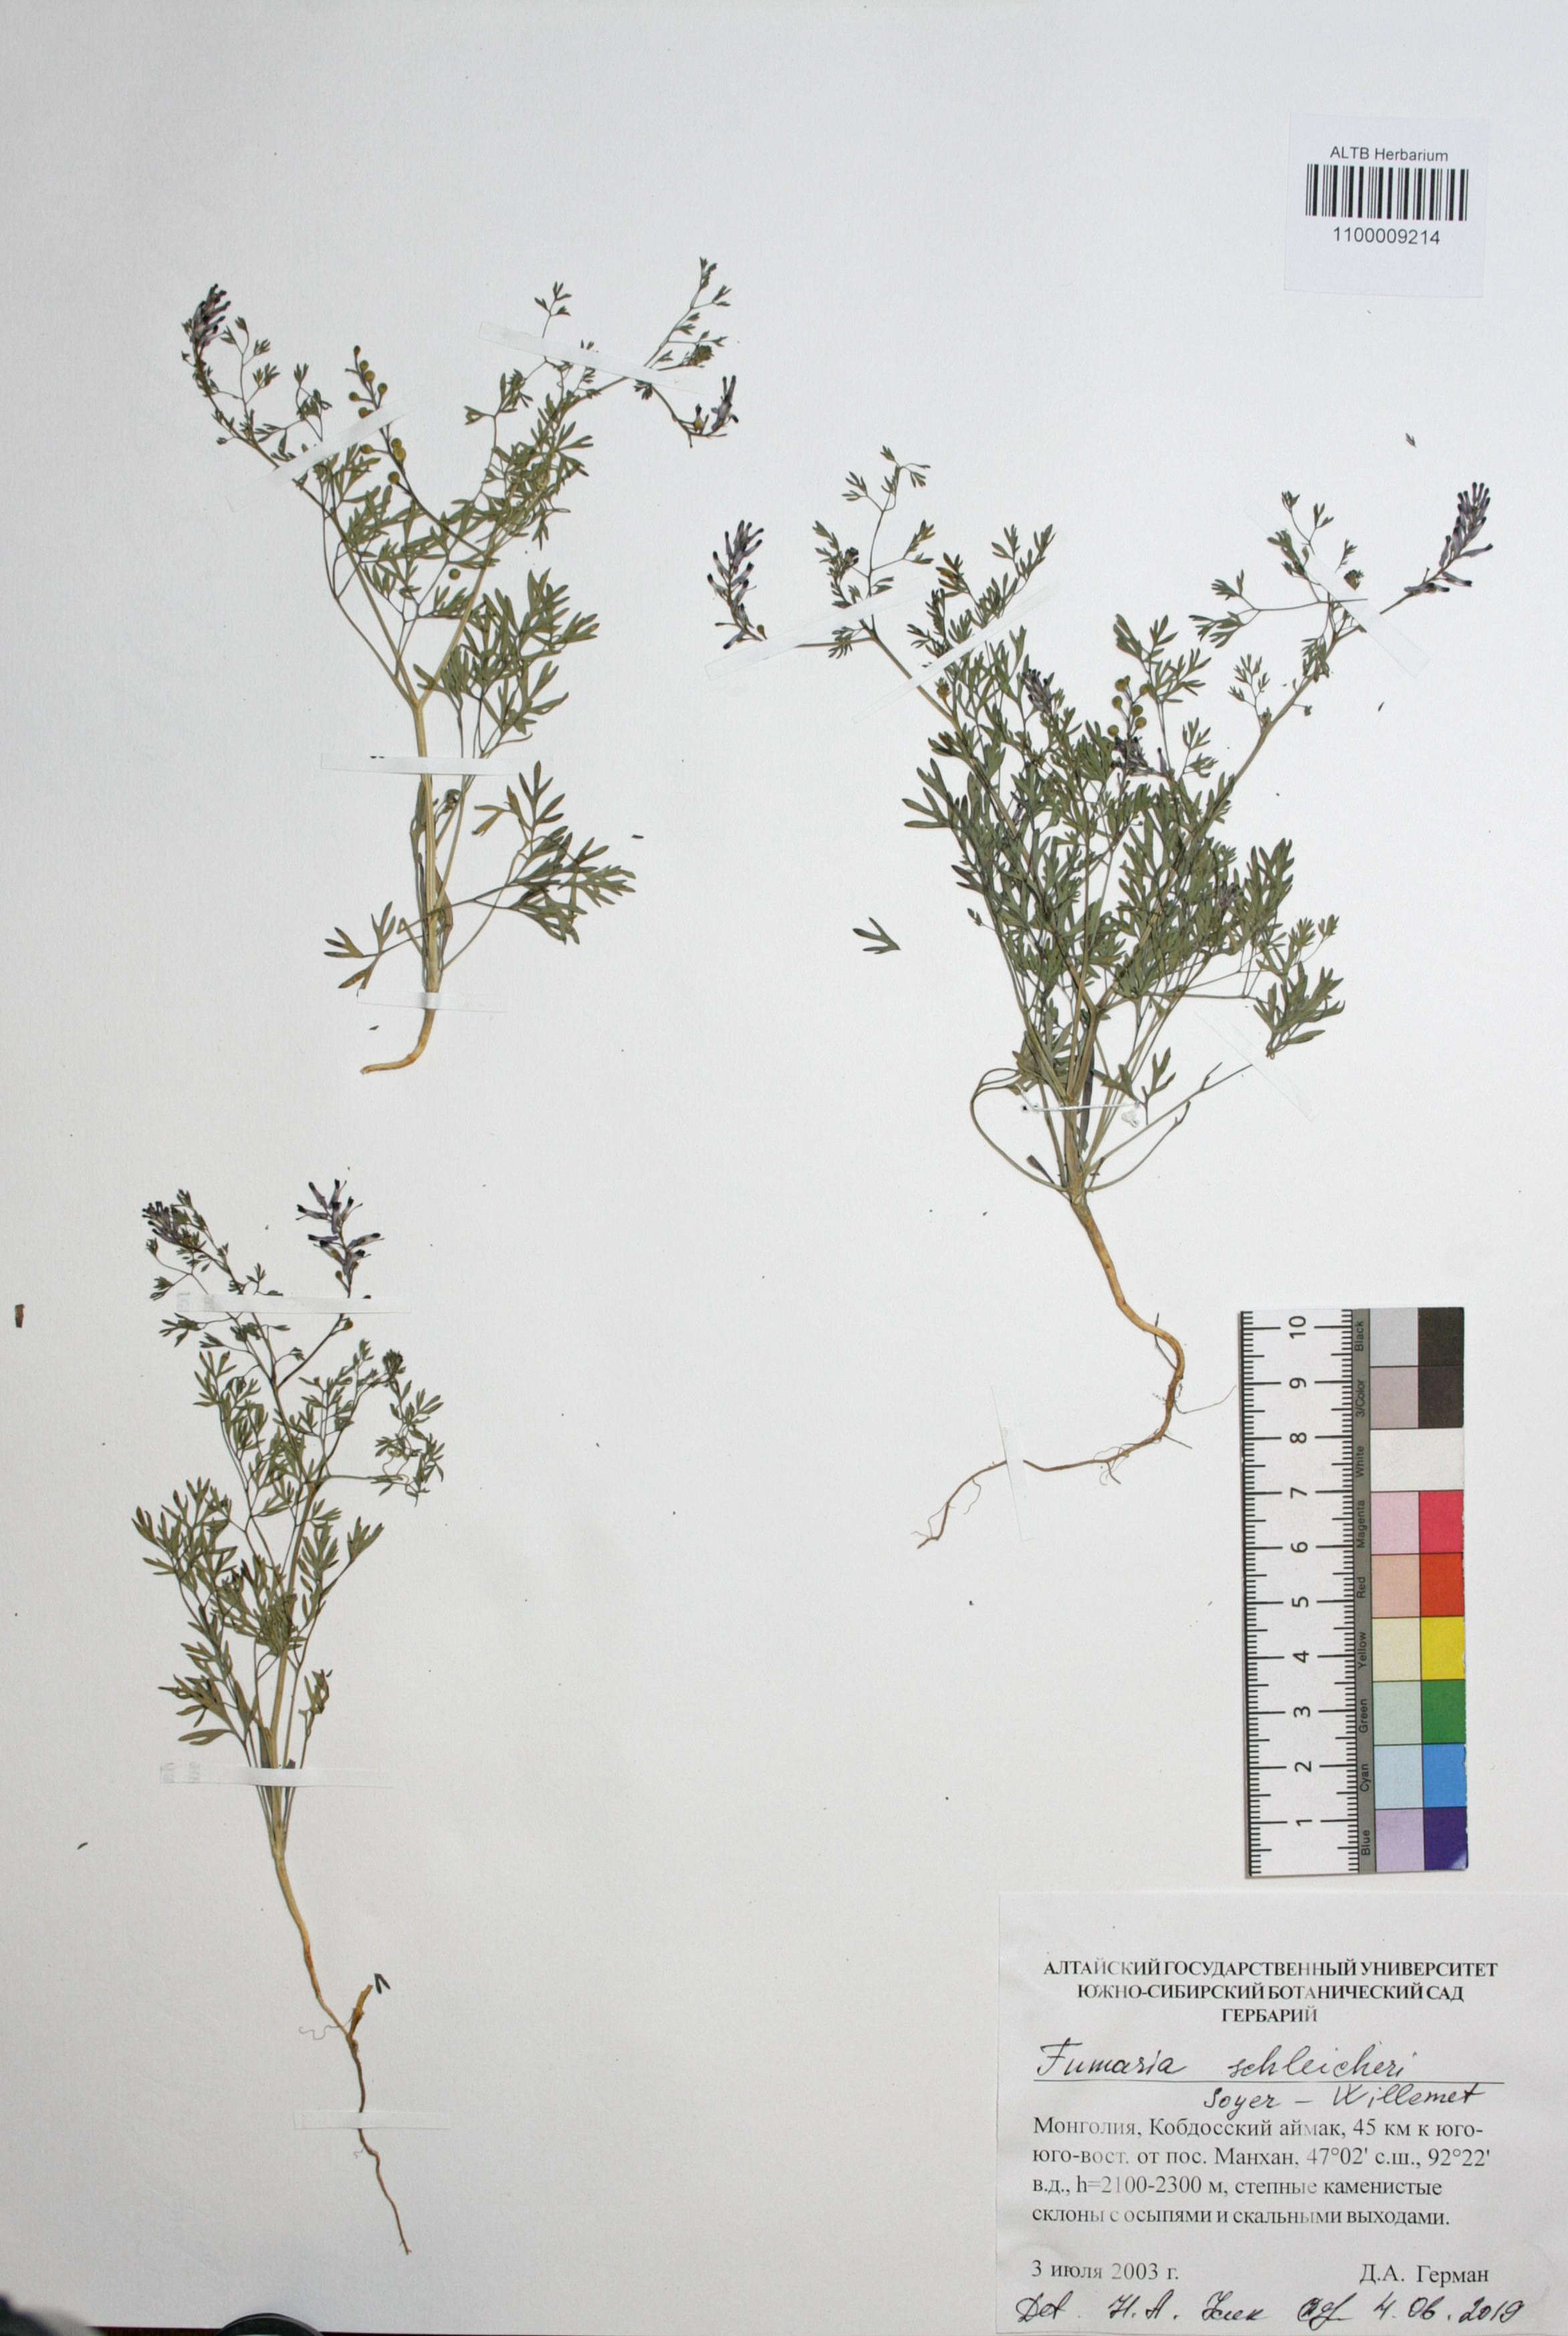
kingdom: Plantae
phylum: Tracheophyta
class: Magnoliopsida
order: Ranunculales
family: Papaveraceae
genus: Fumaria
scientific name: Fumaria schleicheri
